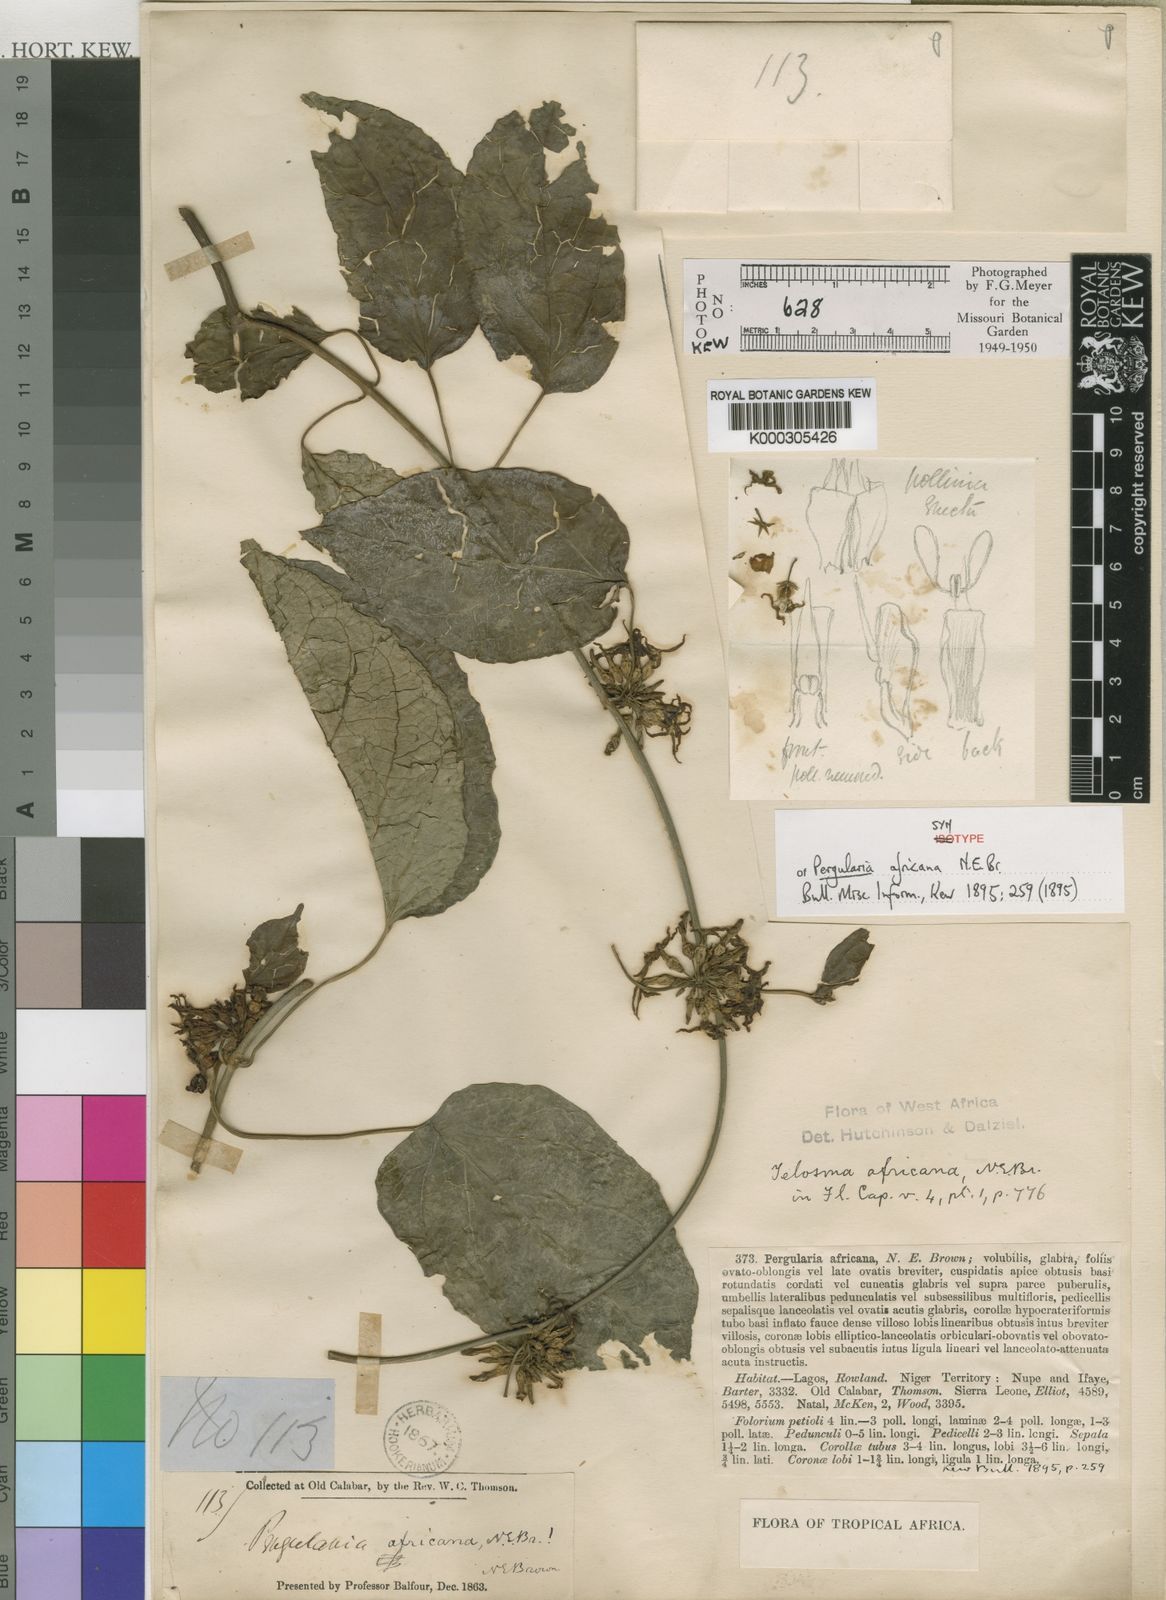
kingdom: Plantae
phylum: Tracheophyta
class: Magnoliopsida
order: Gentianales
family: Apocynaceae
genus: Telosma
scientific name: Telosma africana
